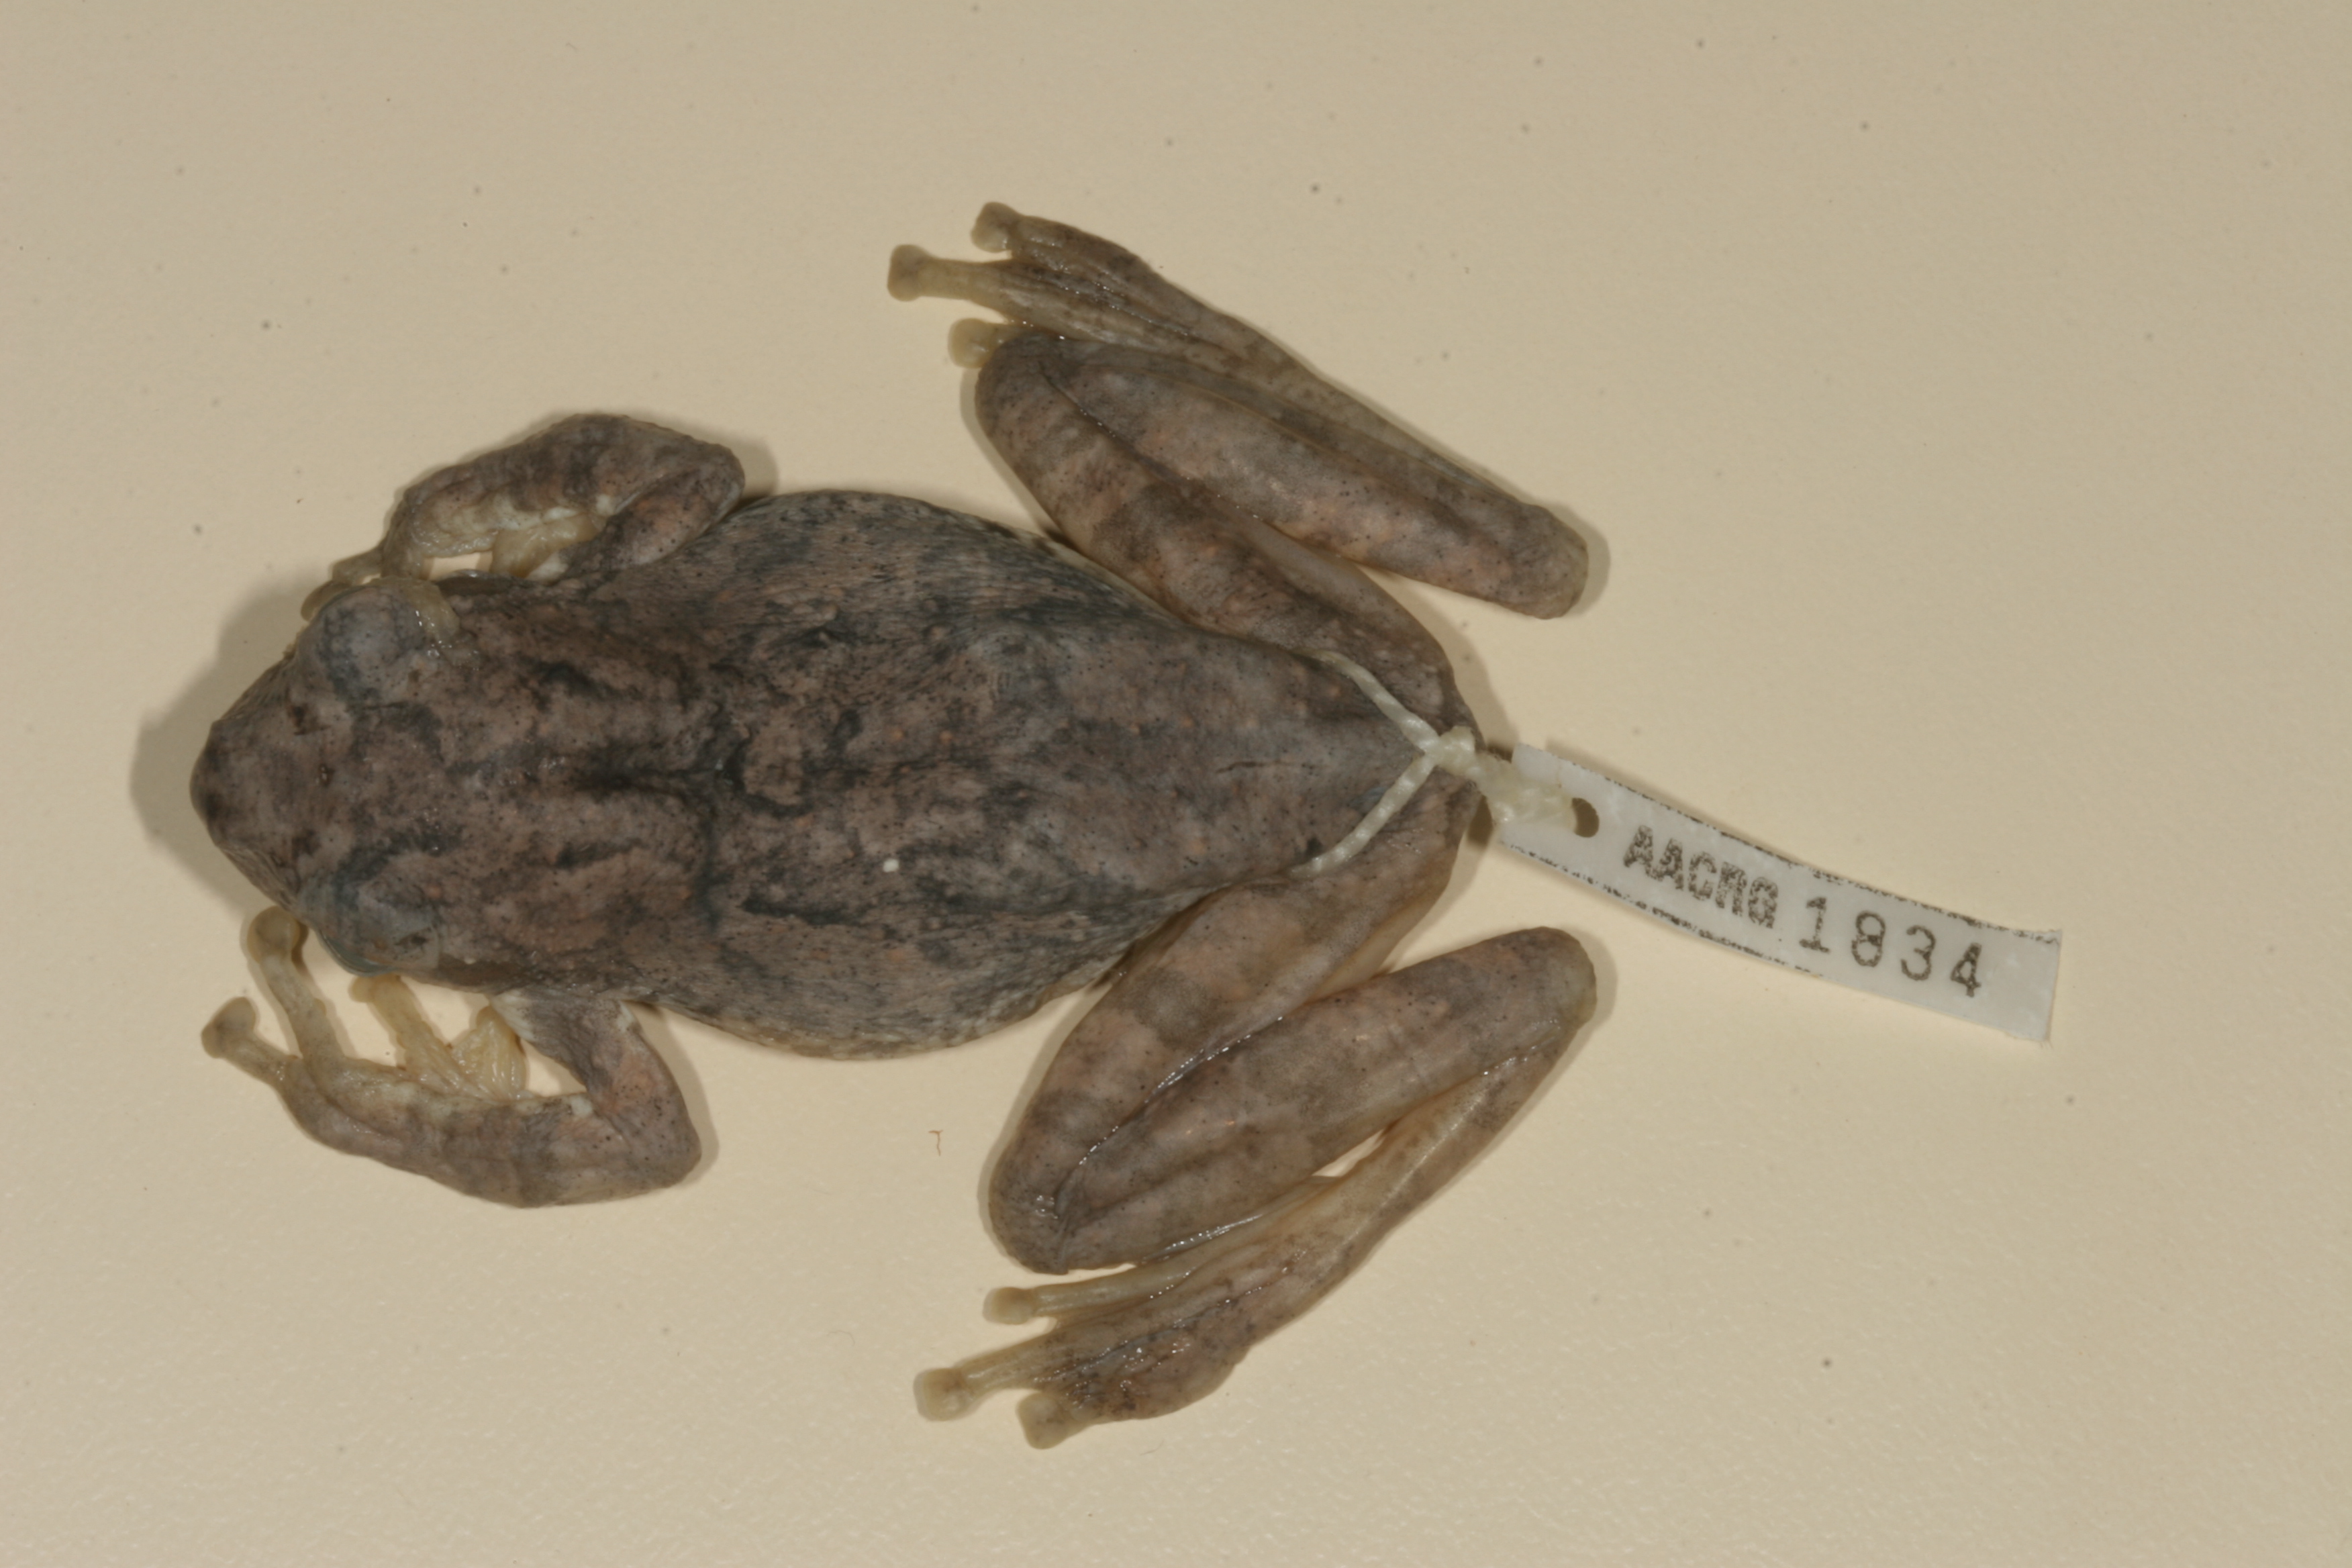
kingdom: Animalia
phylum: Chordata
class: Amphibia
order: Anura
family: Rhacophoridae
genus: Chiromantis
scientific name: Chiromantis xerampelina
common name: African gray treefrog
